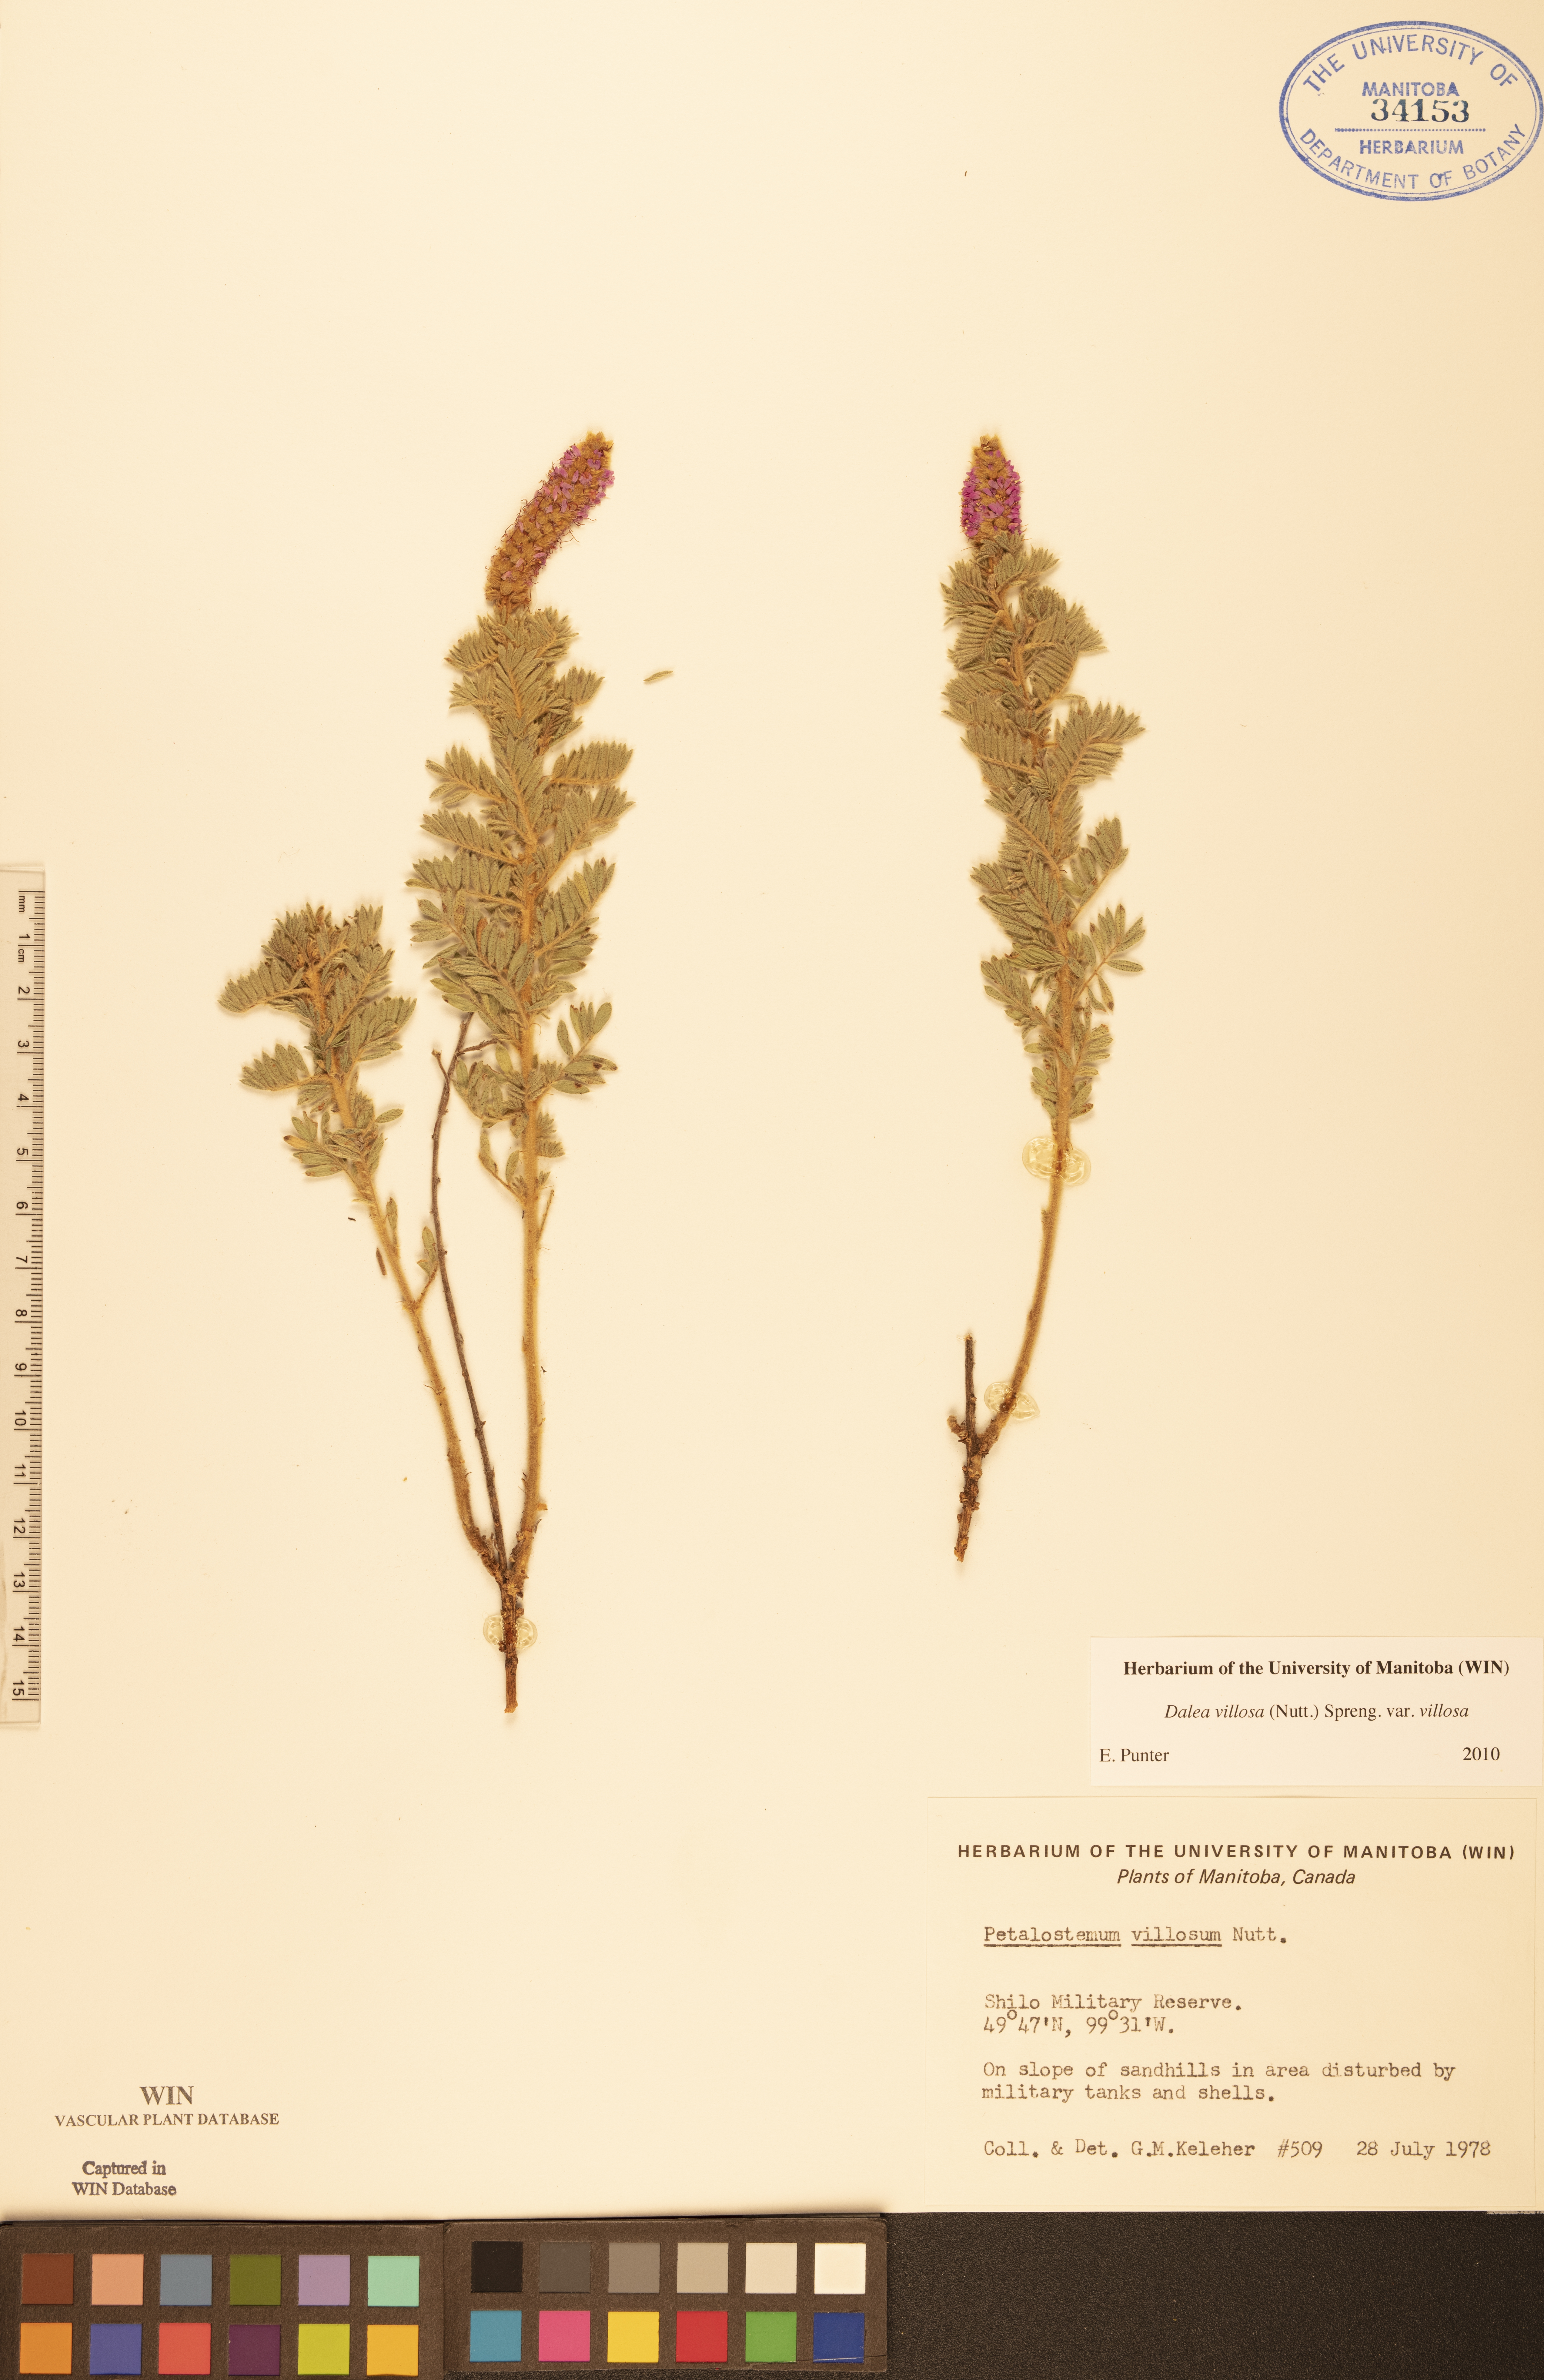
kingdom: Plantae
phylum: Tracheophyta
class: Magnoliopsida
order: Fabales
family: Fabaceae
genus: Dalea
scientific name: Dalea villosa
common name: Silky prairie-clover
